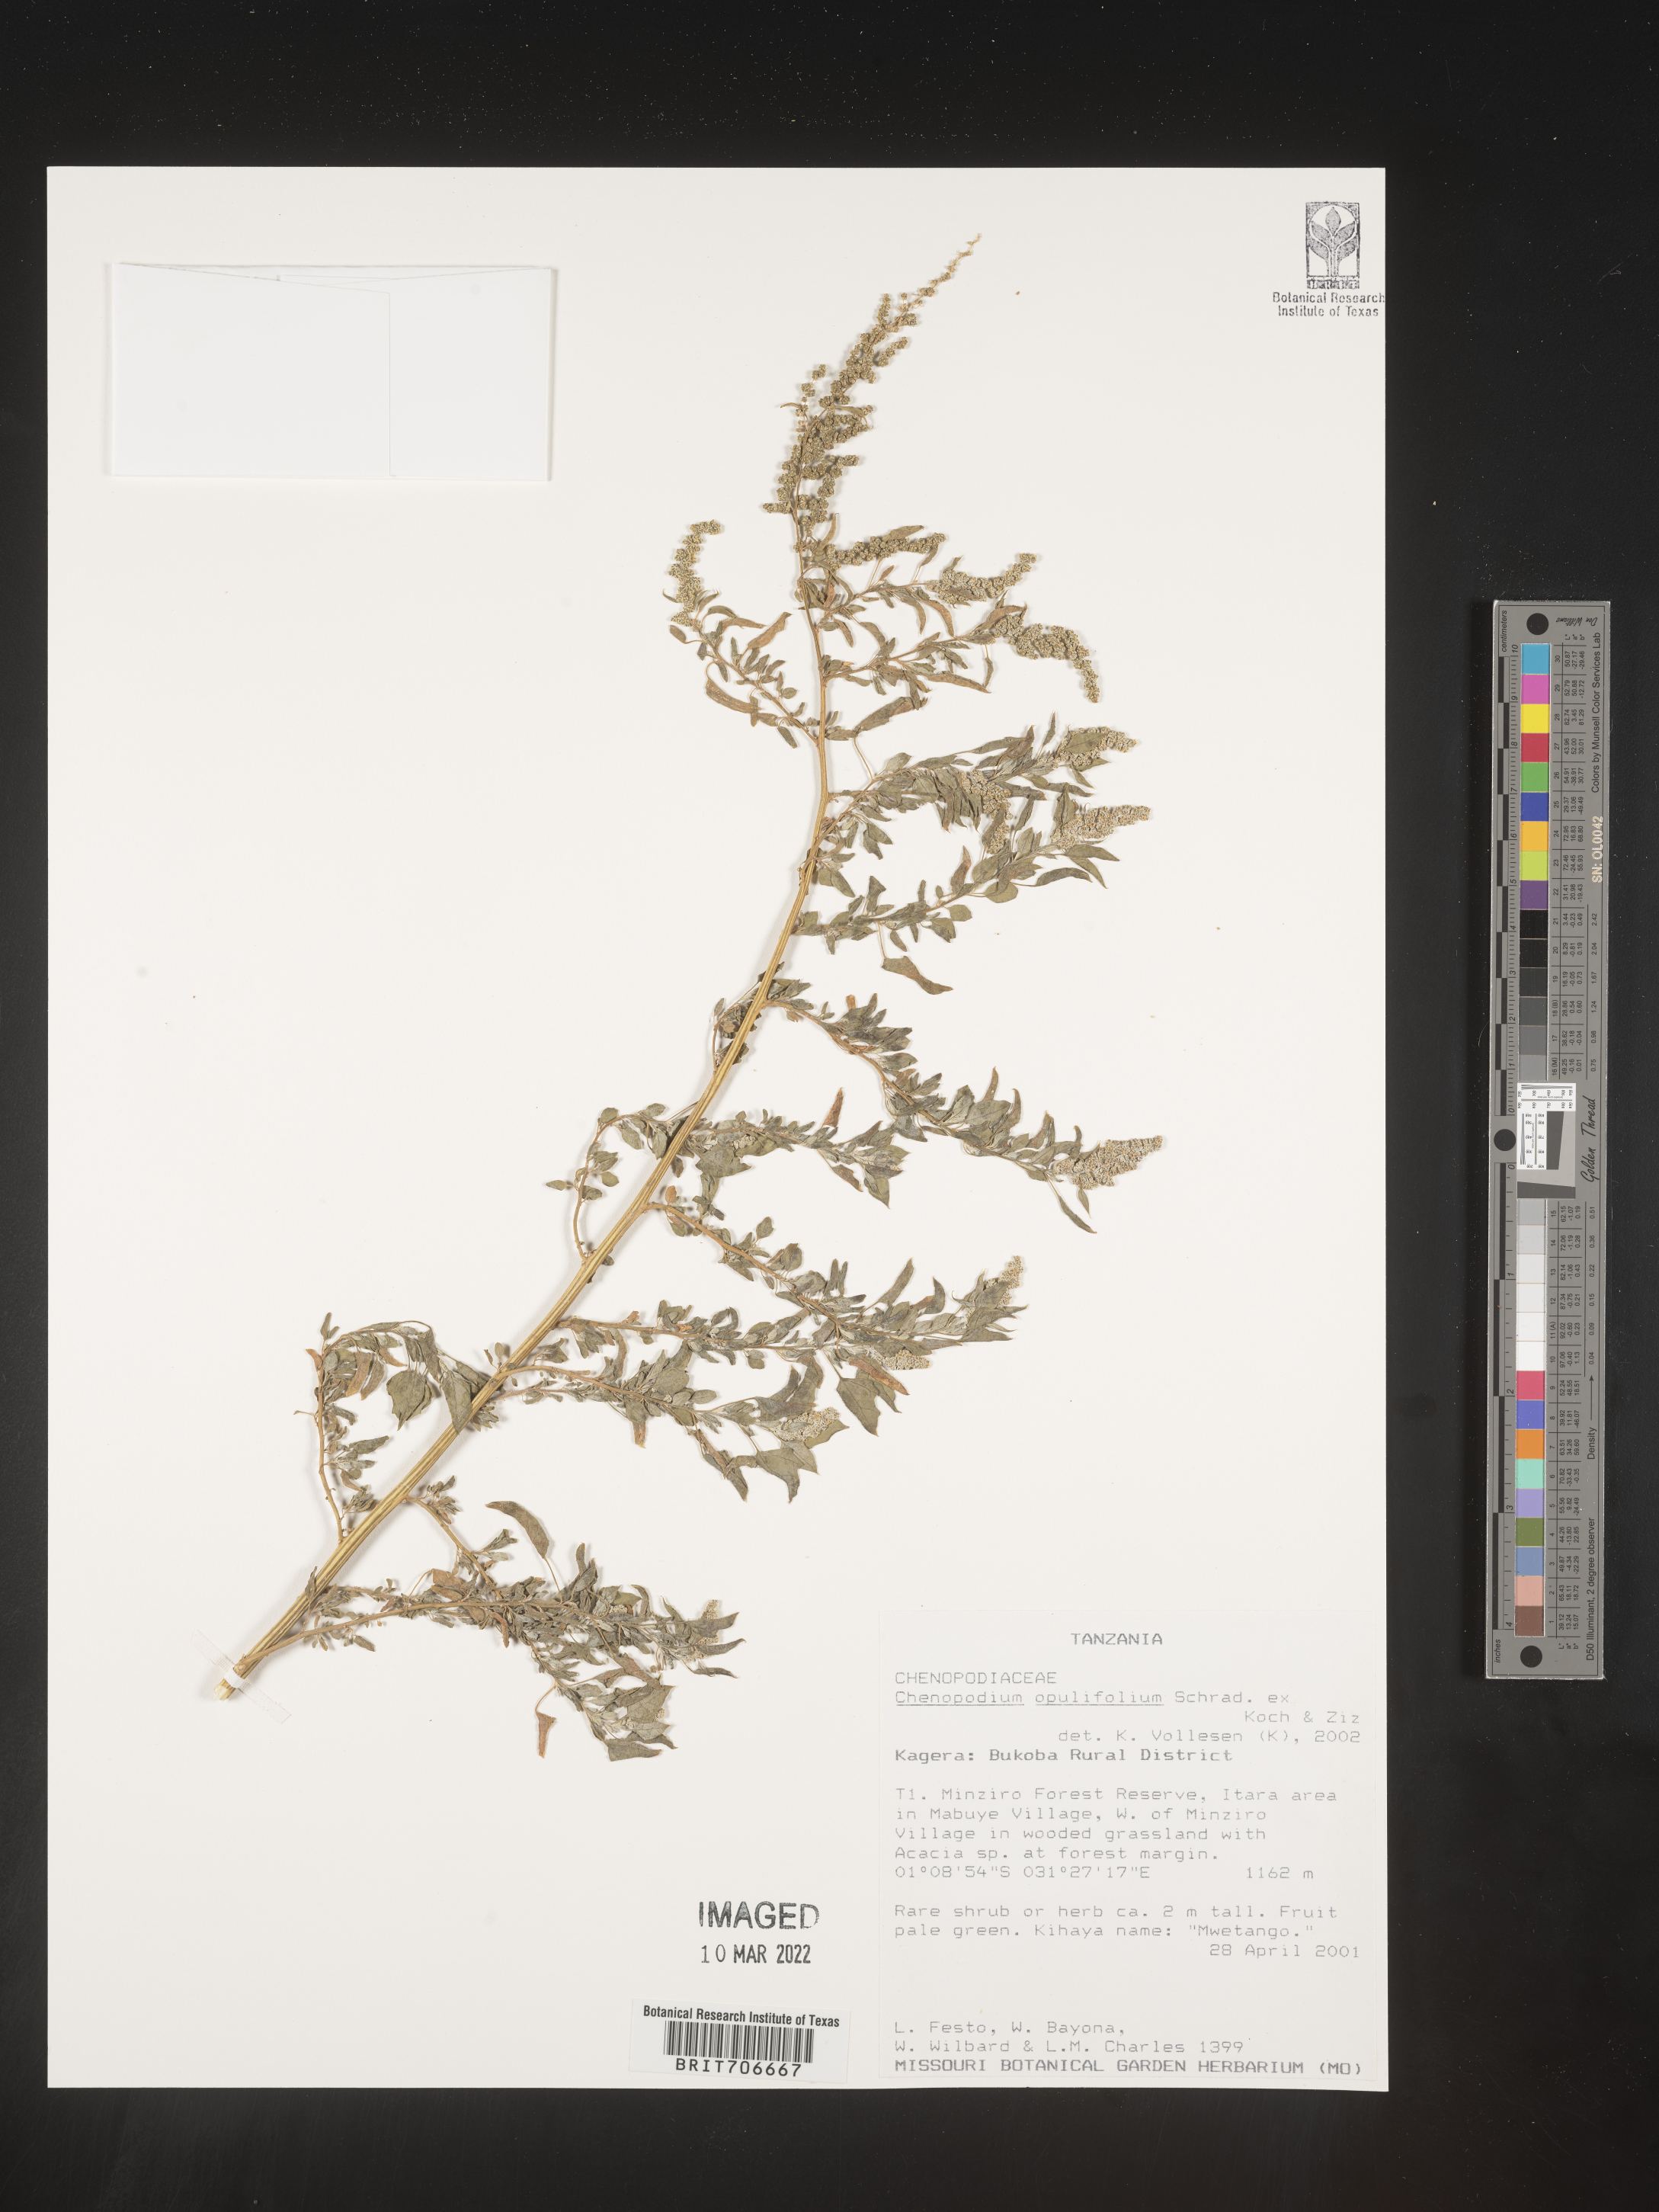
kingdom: Plantae
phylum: Tracheophyta
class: Magnoliopsida
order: Caryophyllales
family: Amaranthaceae
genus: Chenopodium
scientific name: Chenopodium
